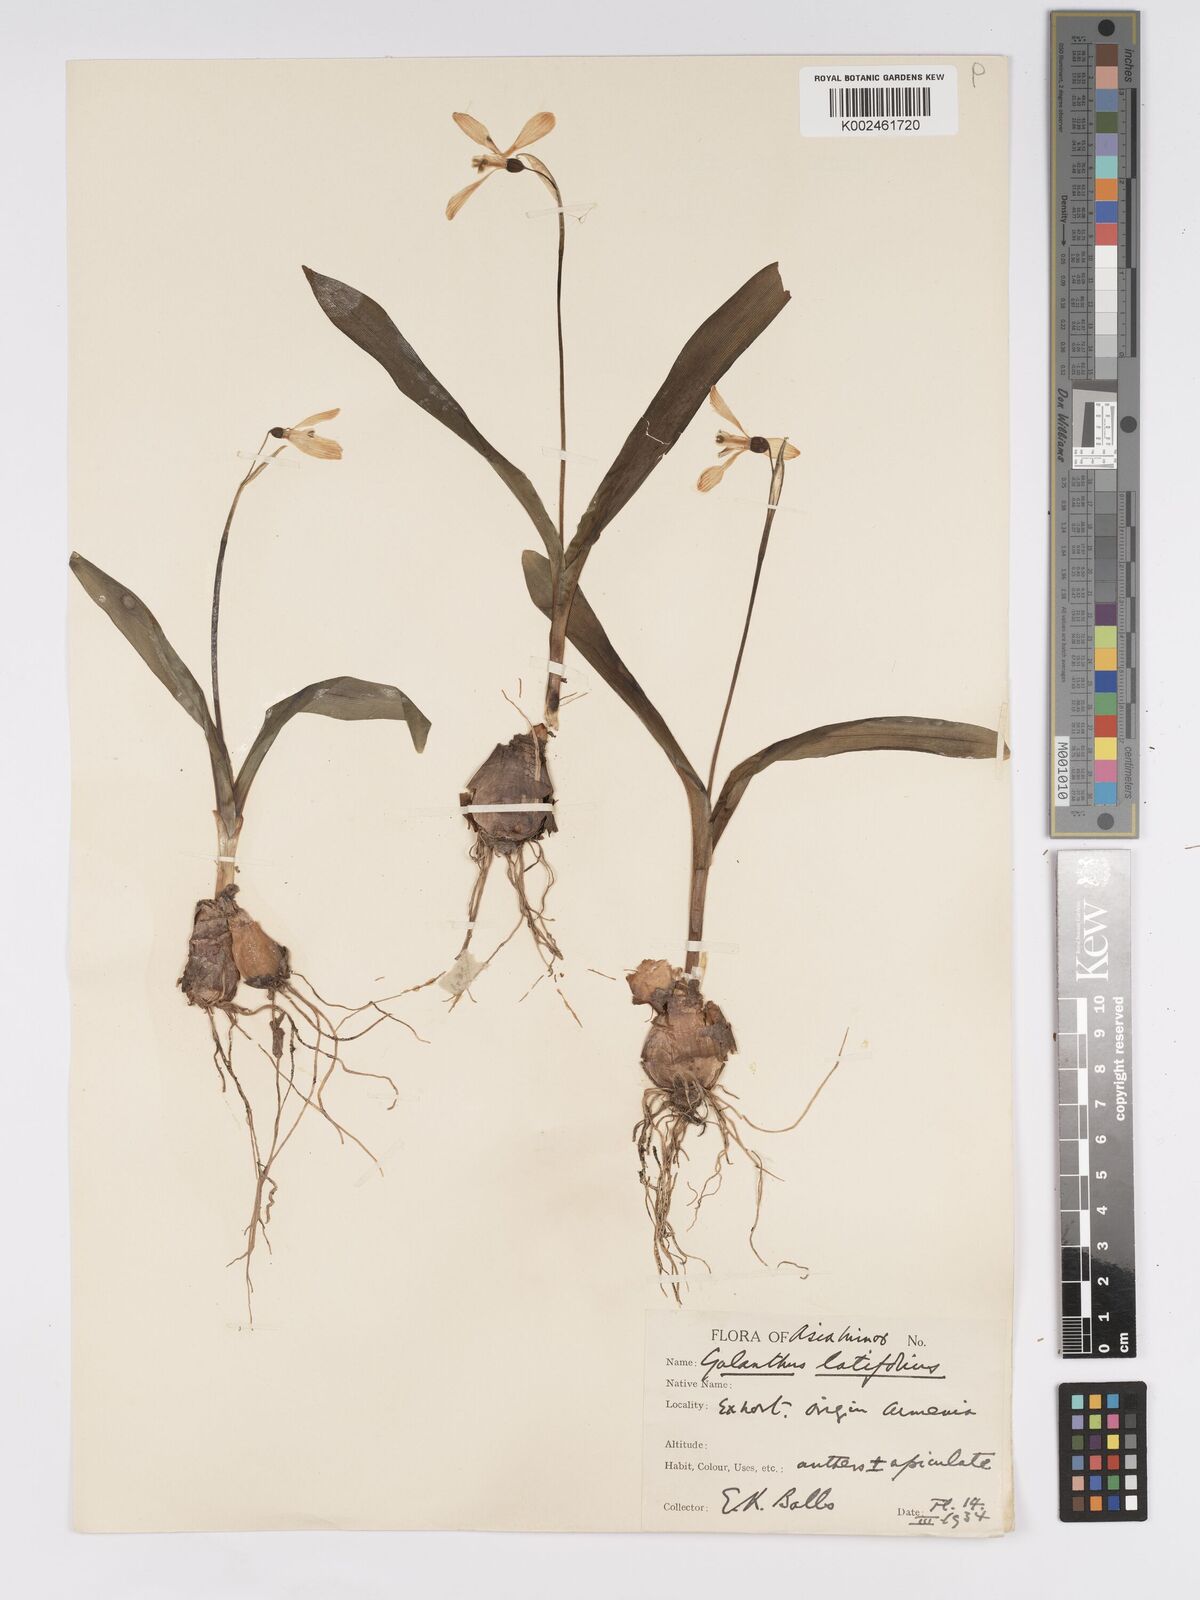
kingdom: Plantae
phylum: Tracheophyta
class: Liliopsida
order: Asparagales
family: Amaryllidaceae
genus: Galanthus
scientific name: Galanthus platyphyllus
